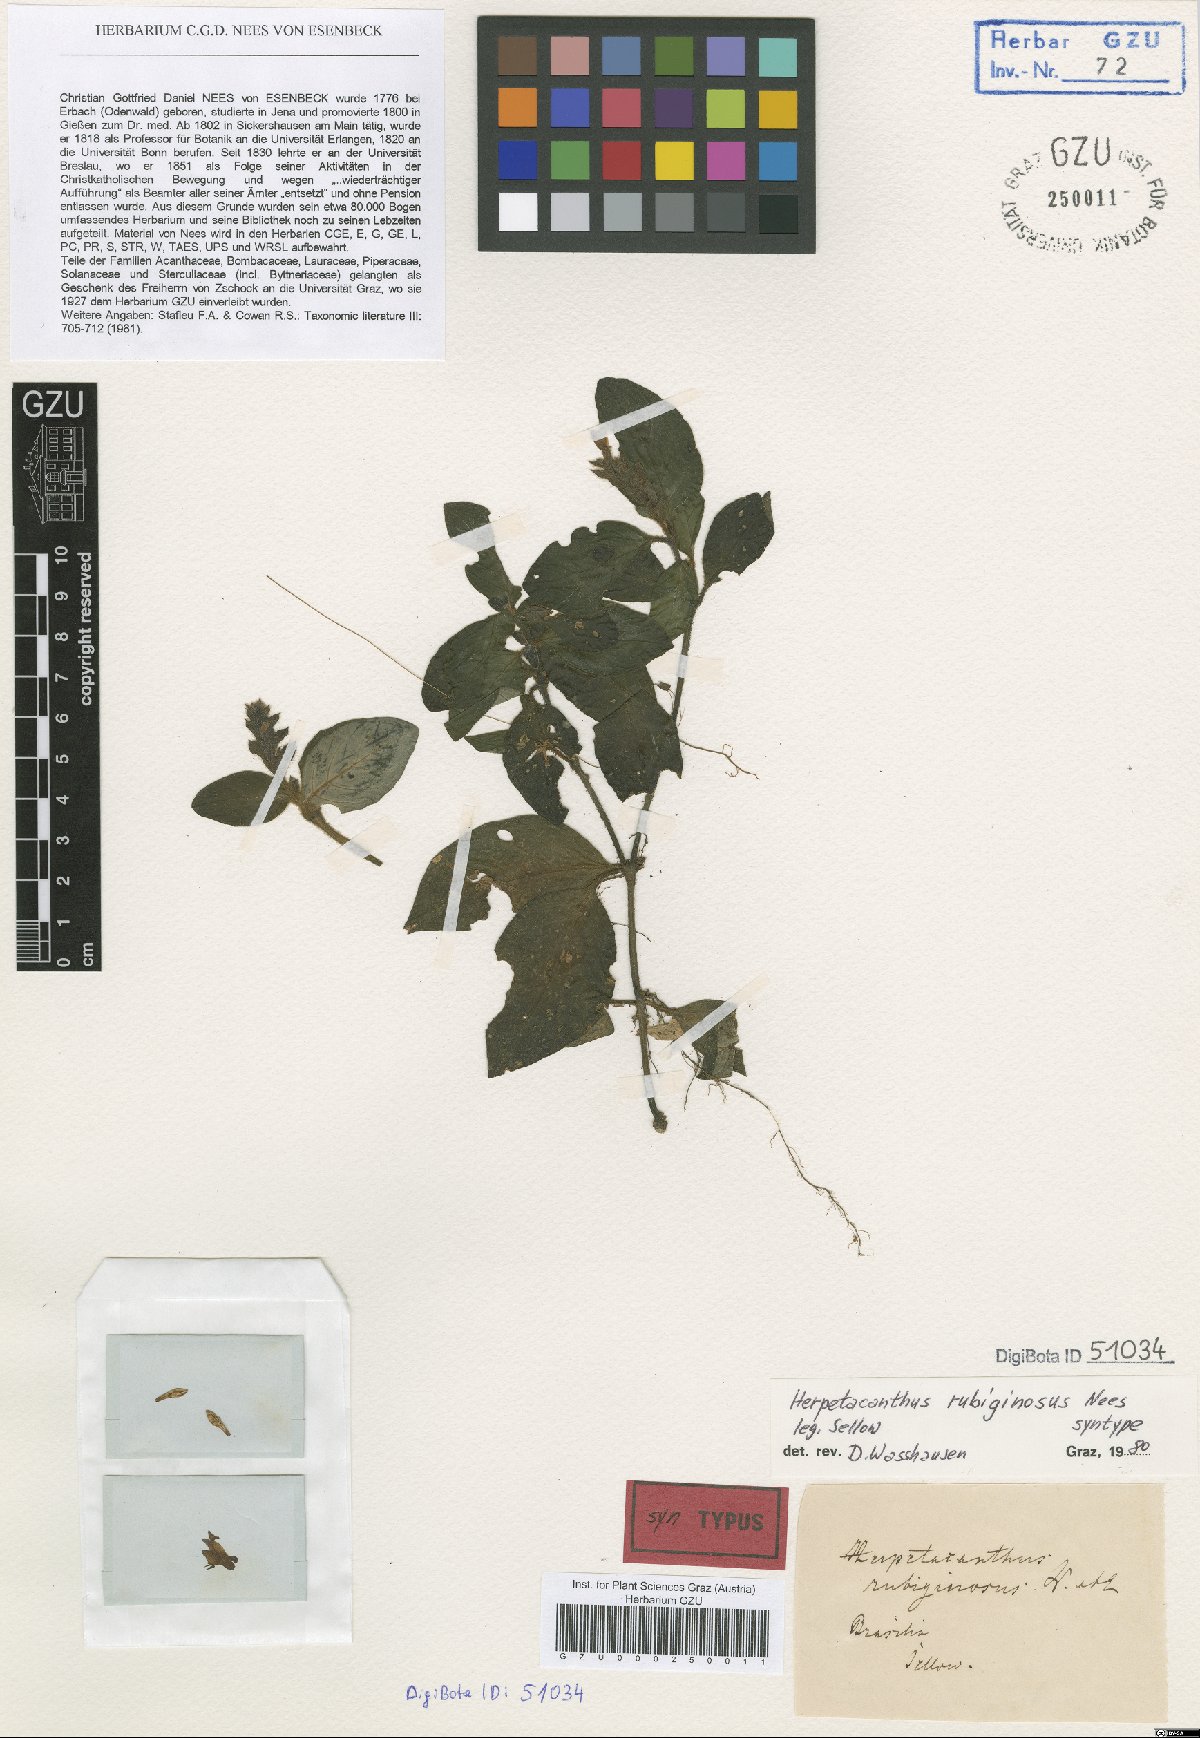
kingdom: Plantae
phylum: Tracheophyta
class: Magnoliopsida
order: Lamiales
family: Acanthaceae
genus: Herpetacanthus
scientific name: Herpetacanthus rubiginosus
